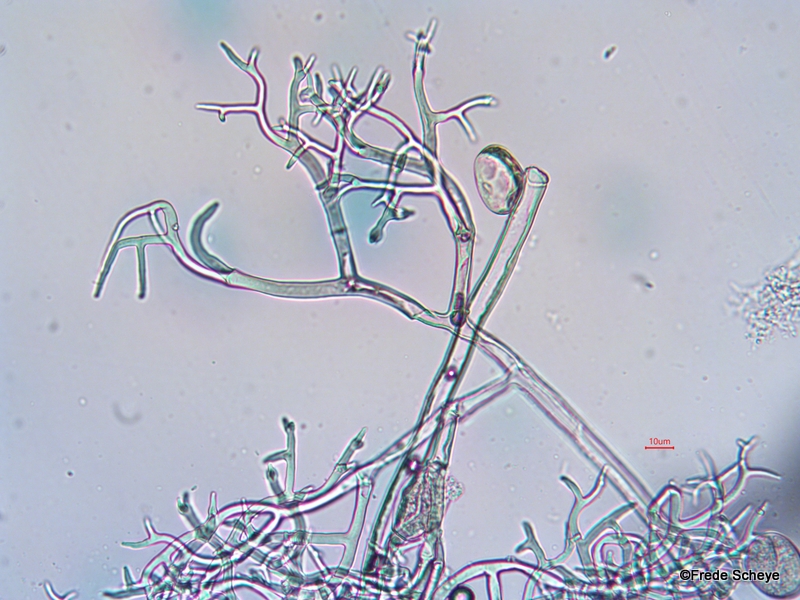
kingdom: Chromista
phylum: Oomycota
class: Peronosporea
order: Peronosporales
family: Peronosporaceae
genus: Peronospora
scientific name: Peronospora aparines
